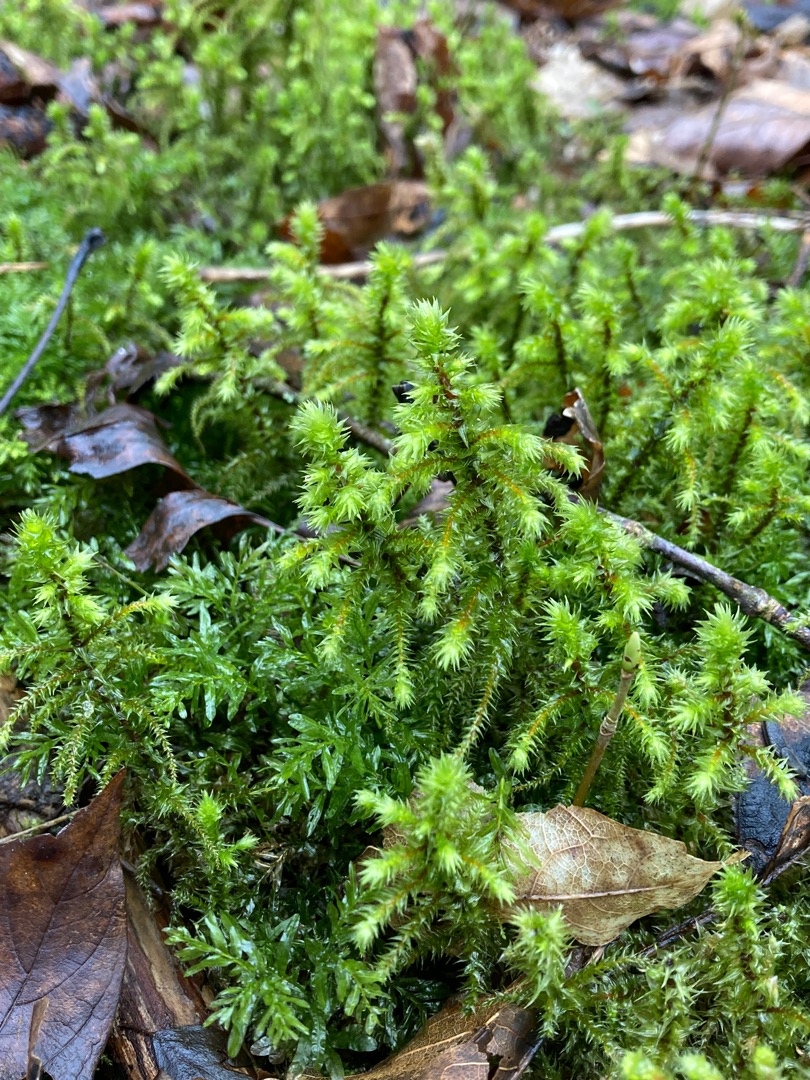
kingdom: Plantae
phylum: Bryophyta
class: Bryopsida
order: Hypnales
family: Hylocomiaceae
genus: Hylocomiadelphus
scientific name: Hylocomiadelphus triquetrus
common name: Stor kransemos
